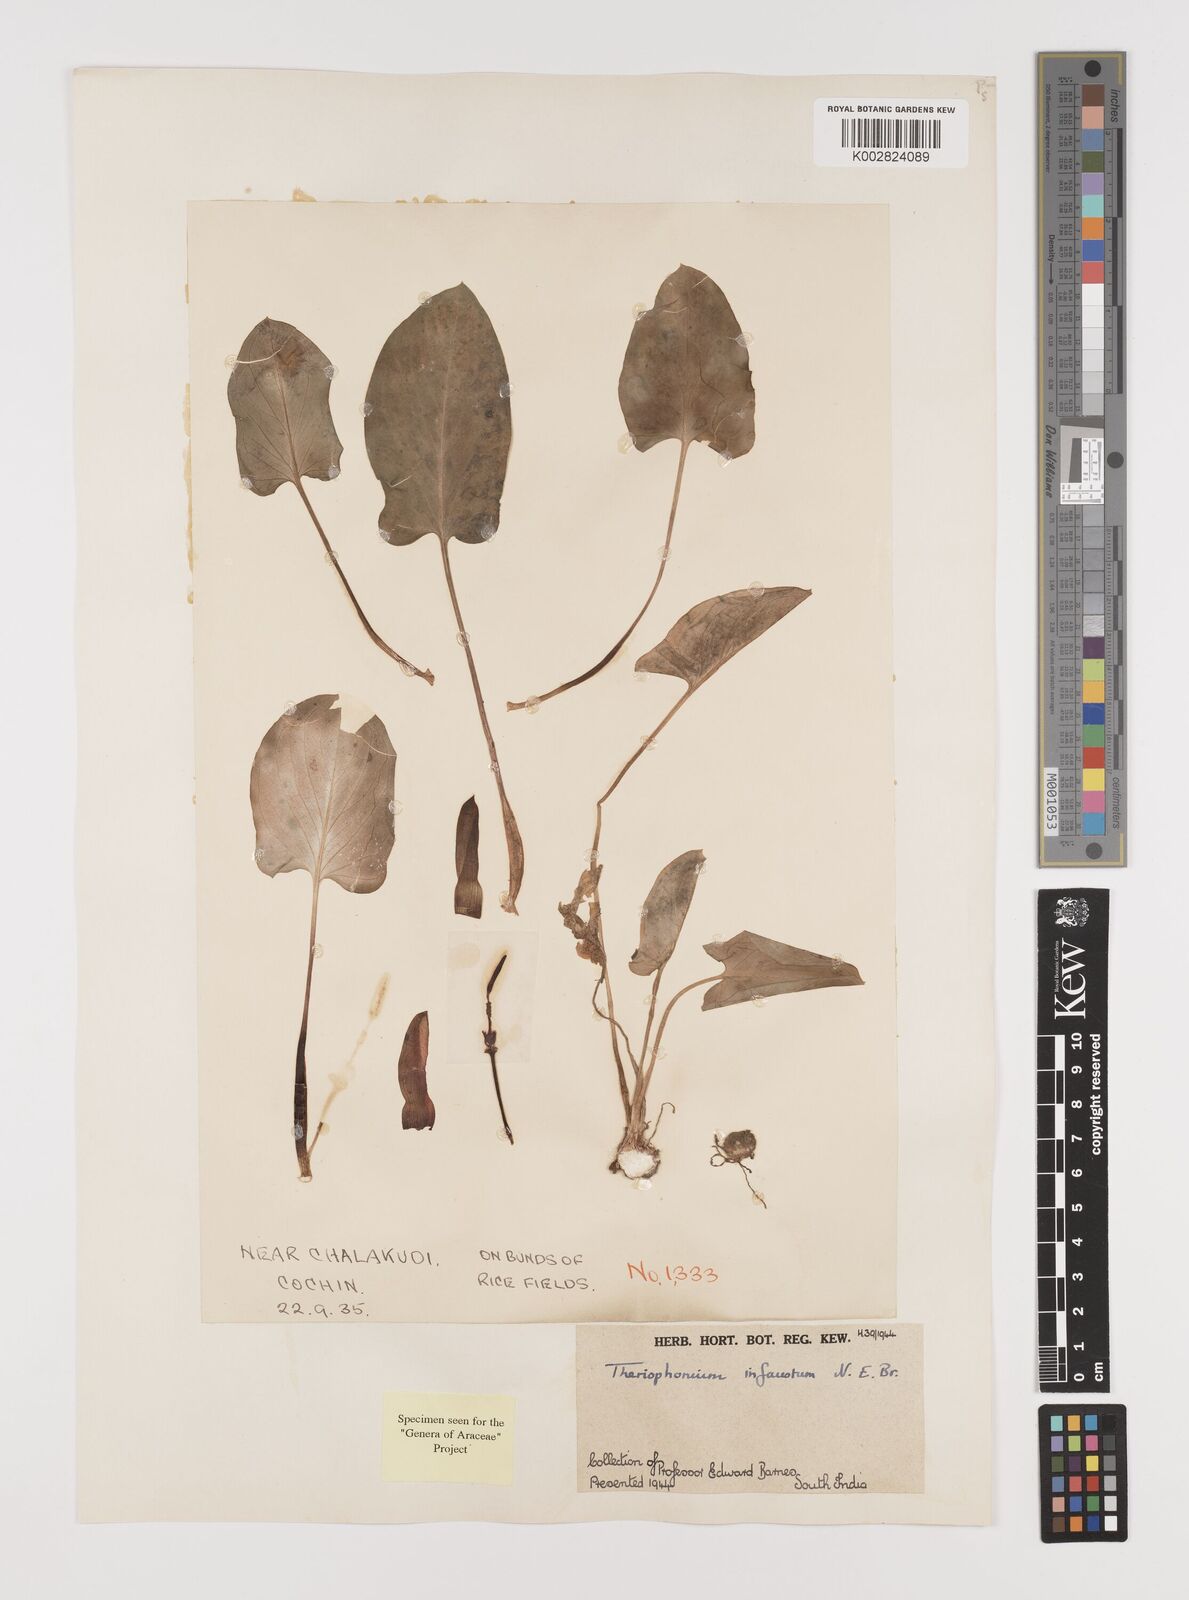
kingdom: Plantae
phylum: Tracheophyta
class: Liliopsida
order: Alismatales
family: Araceae
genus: Theriophonum
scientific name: Theriophonum infaustum
